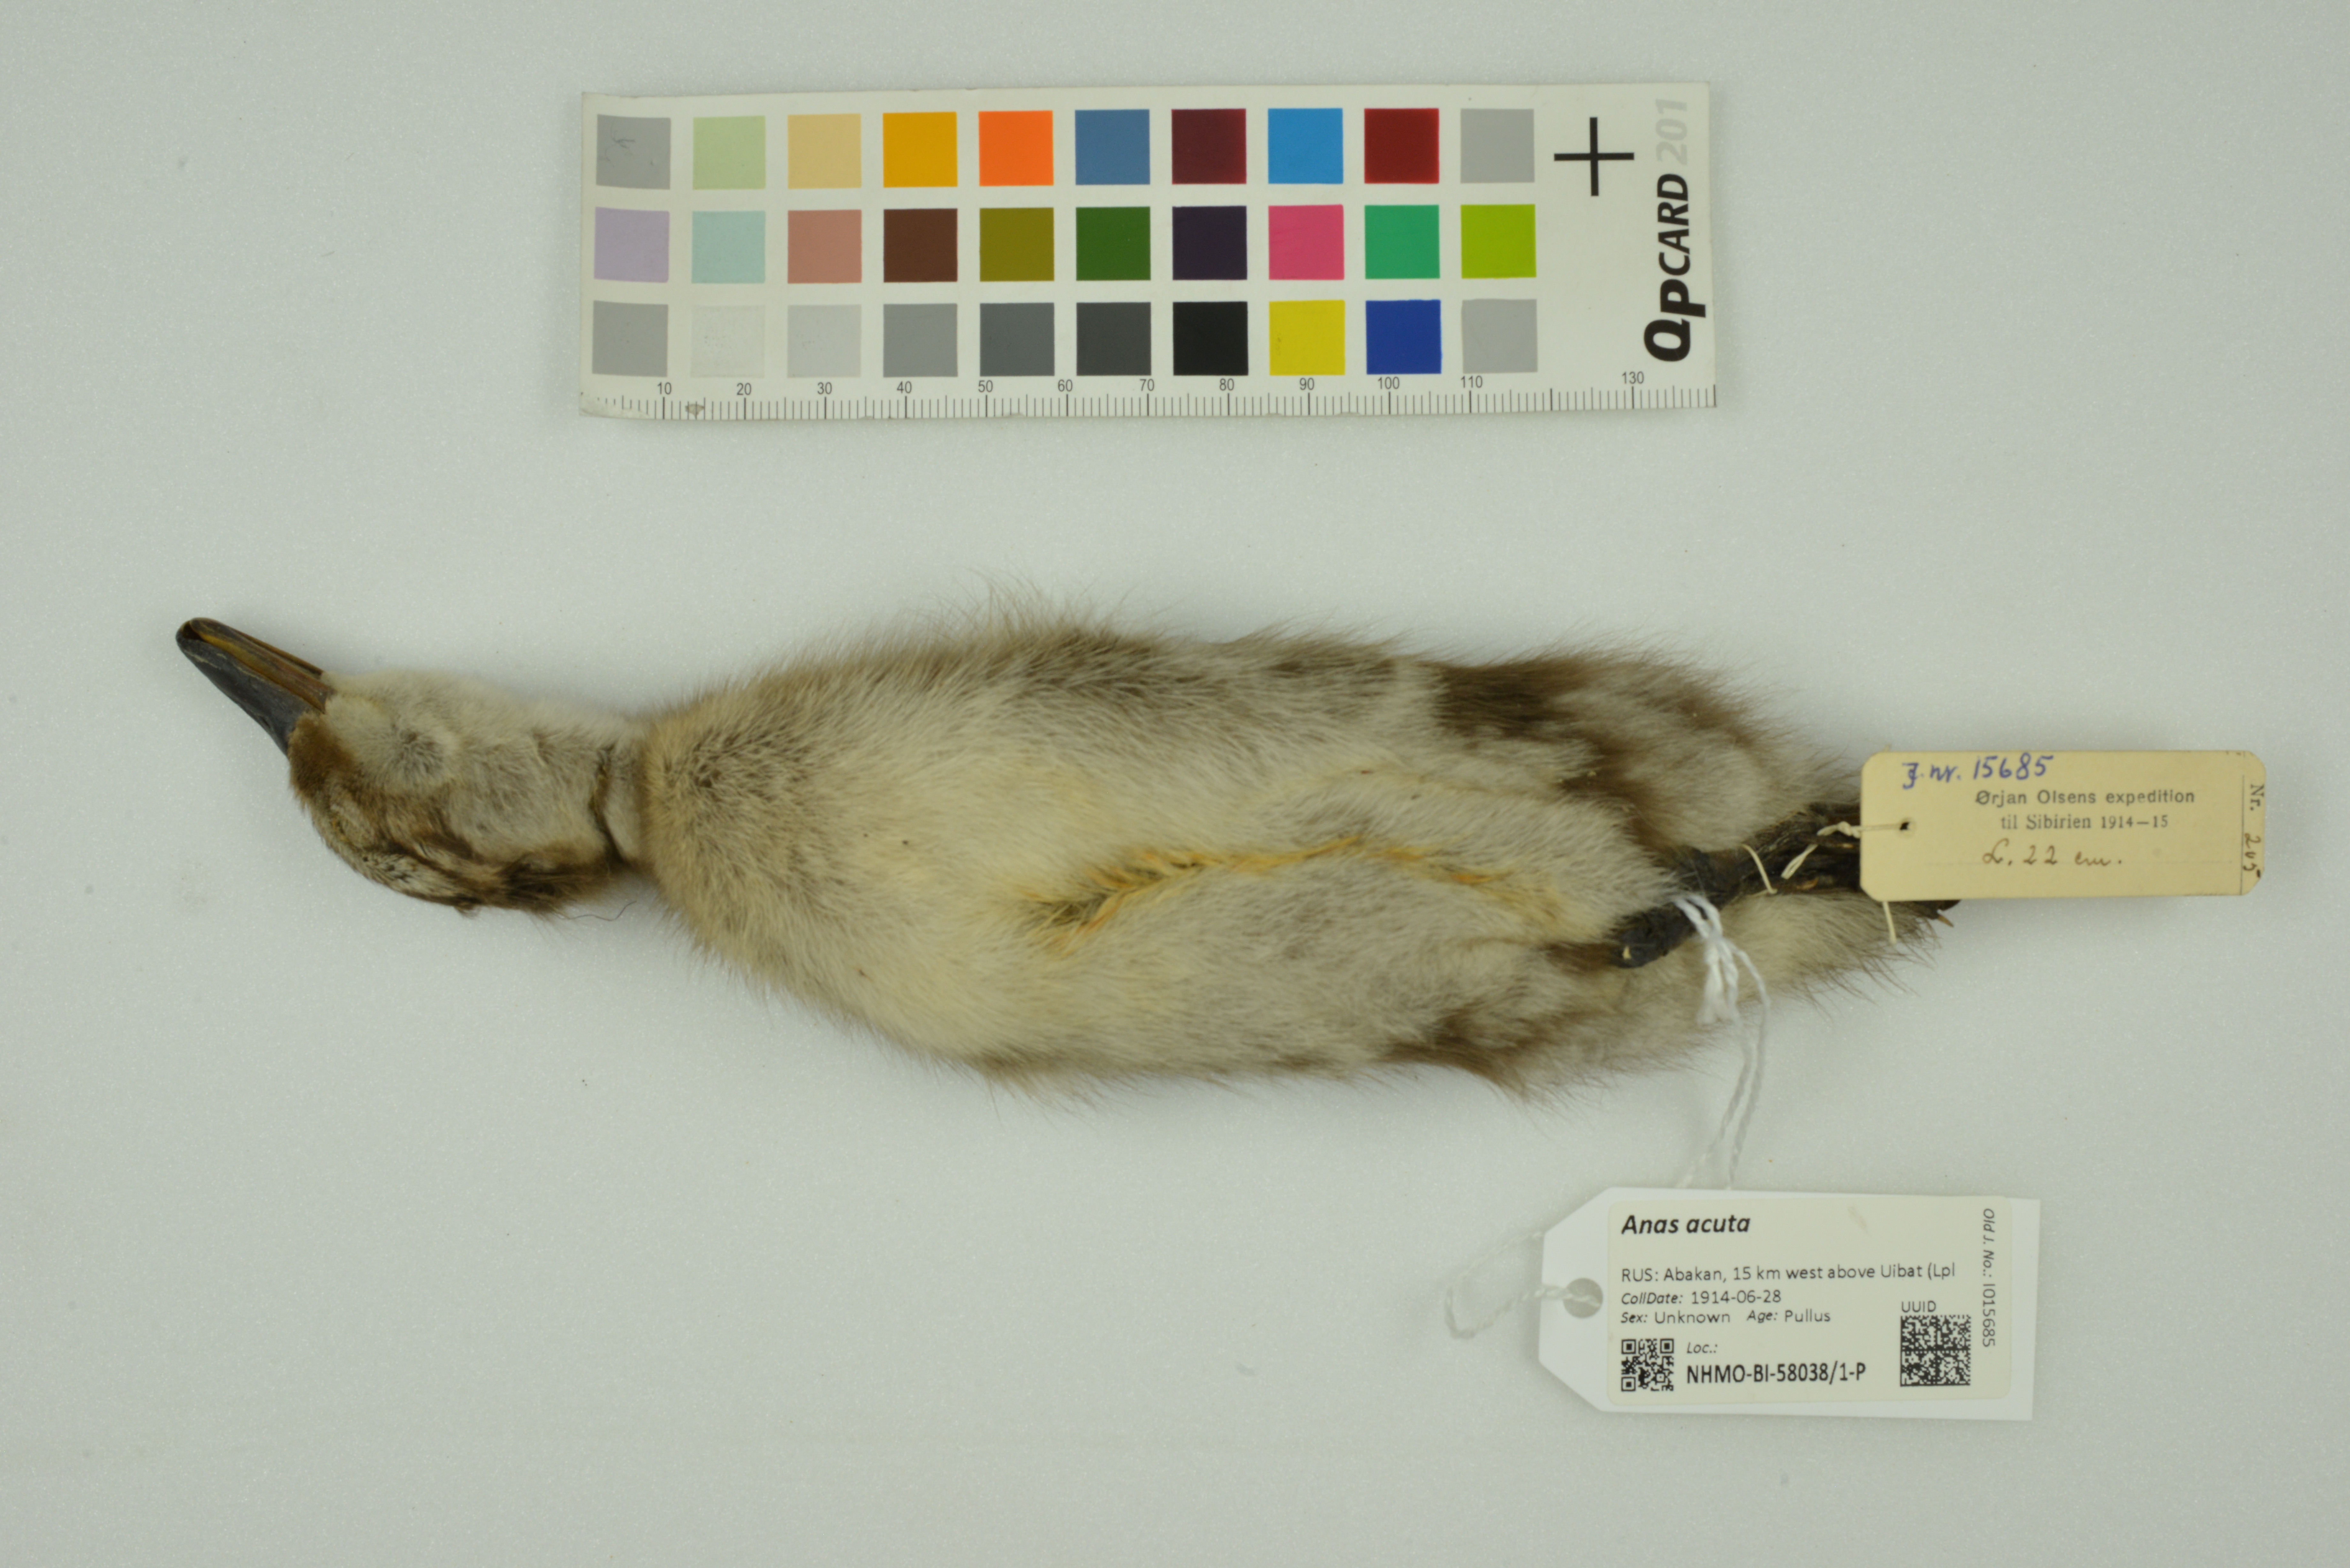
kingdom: Animalia
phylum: Chordata
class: Aves
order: Anseriformes
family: Anatidae
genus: Anas
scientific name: Anas acuta
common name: Northern pintail
